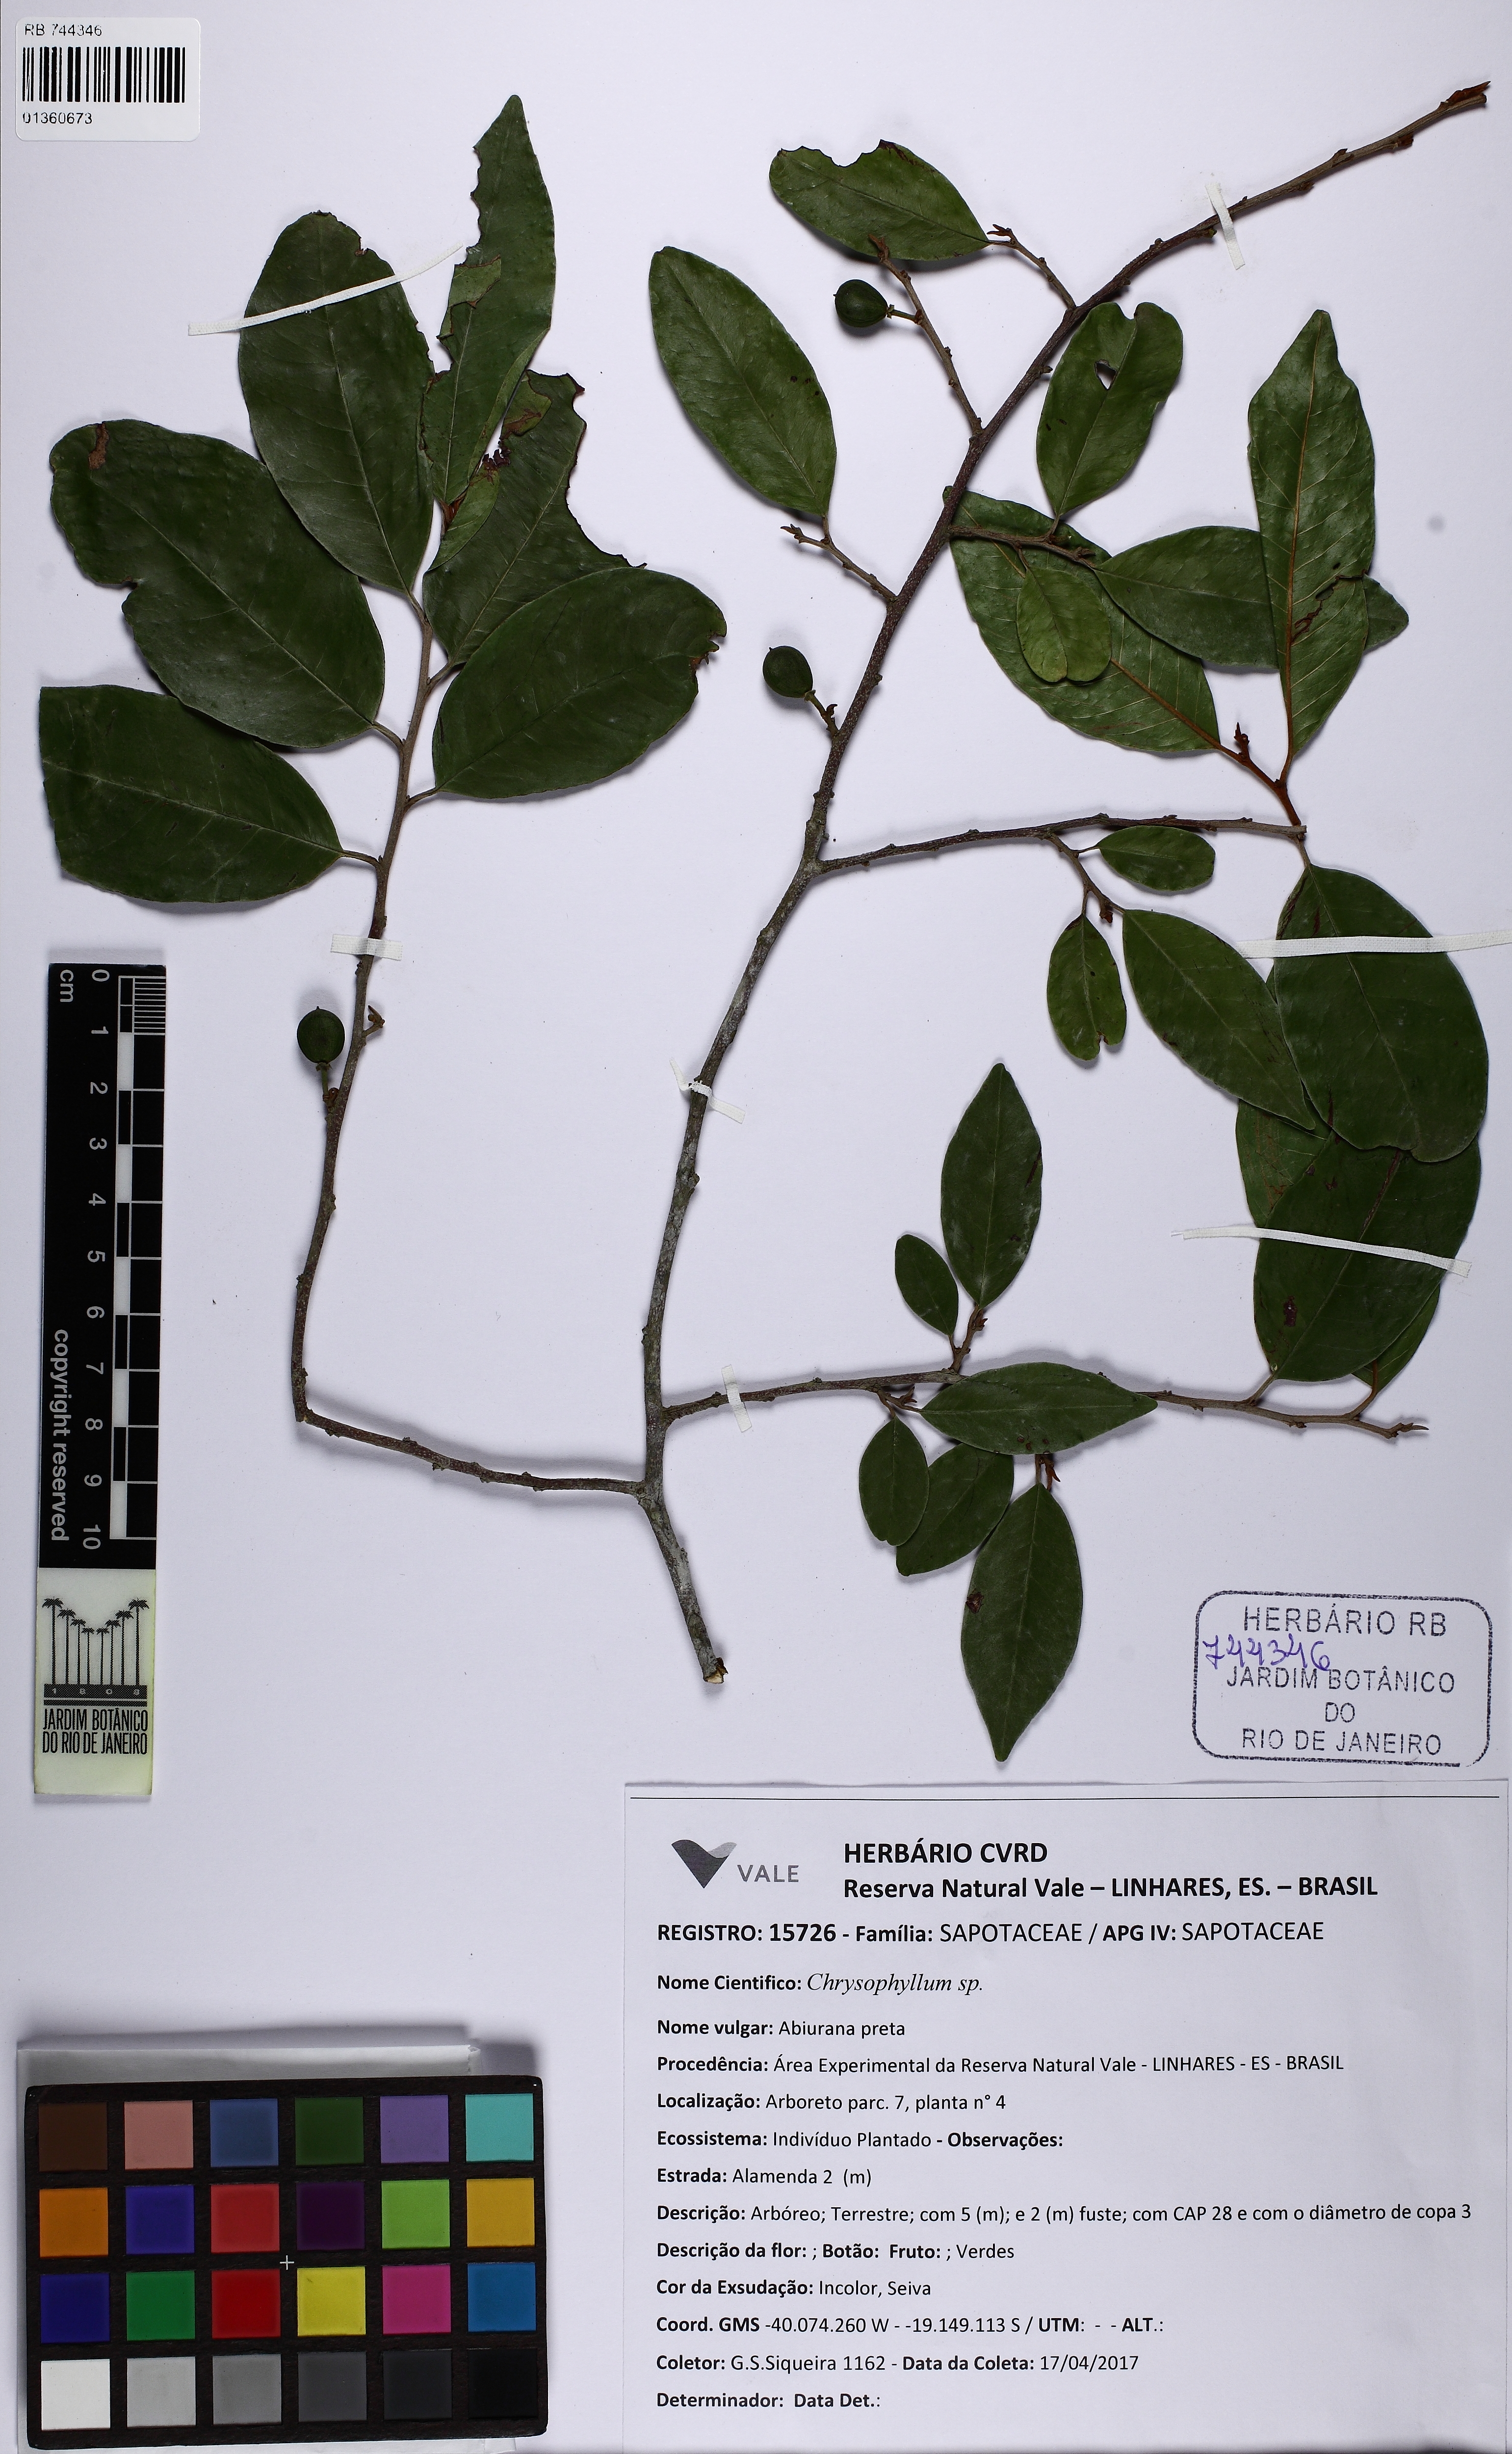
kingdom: Plantae
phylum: Tracheophyta
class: Magnoliopsida
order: Ericales
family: Sapotaceae
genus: Chrysophyllum
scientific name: Chrysophyllum
